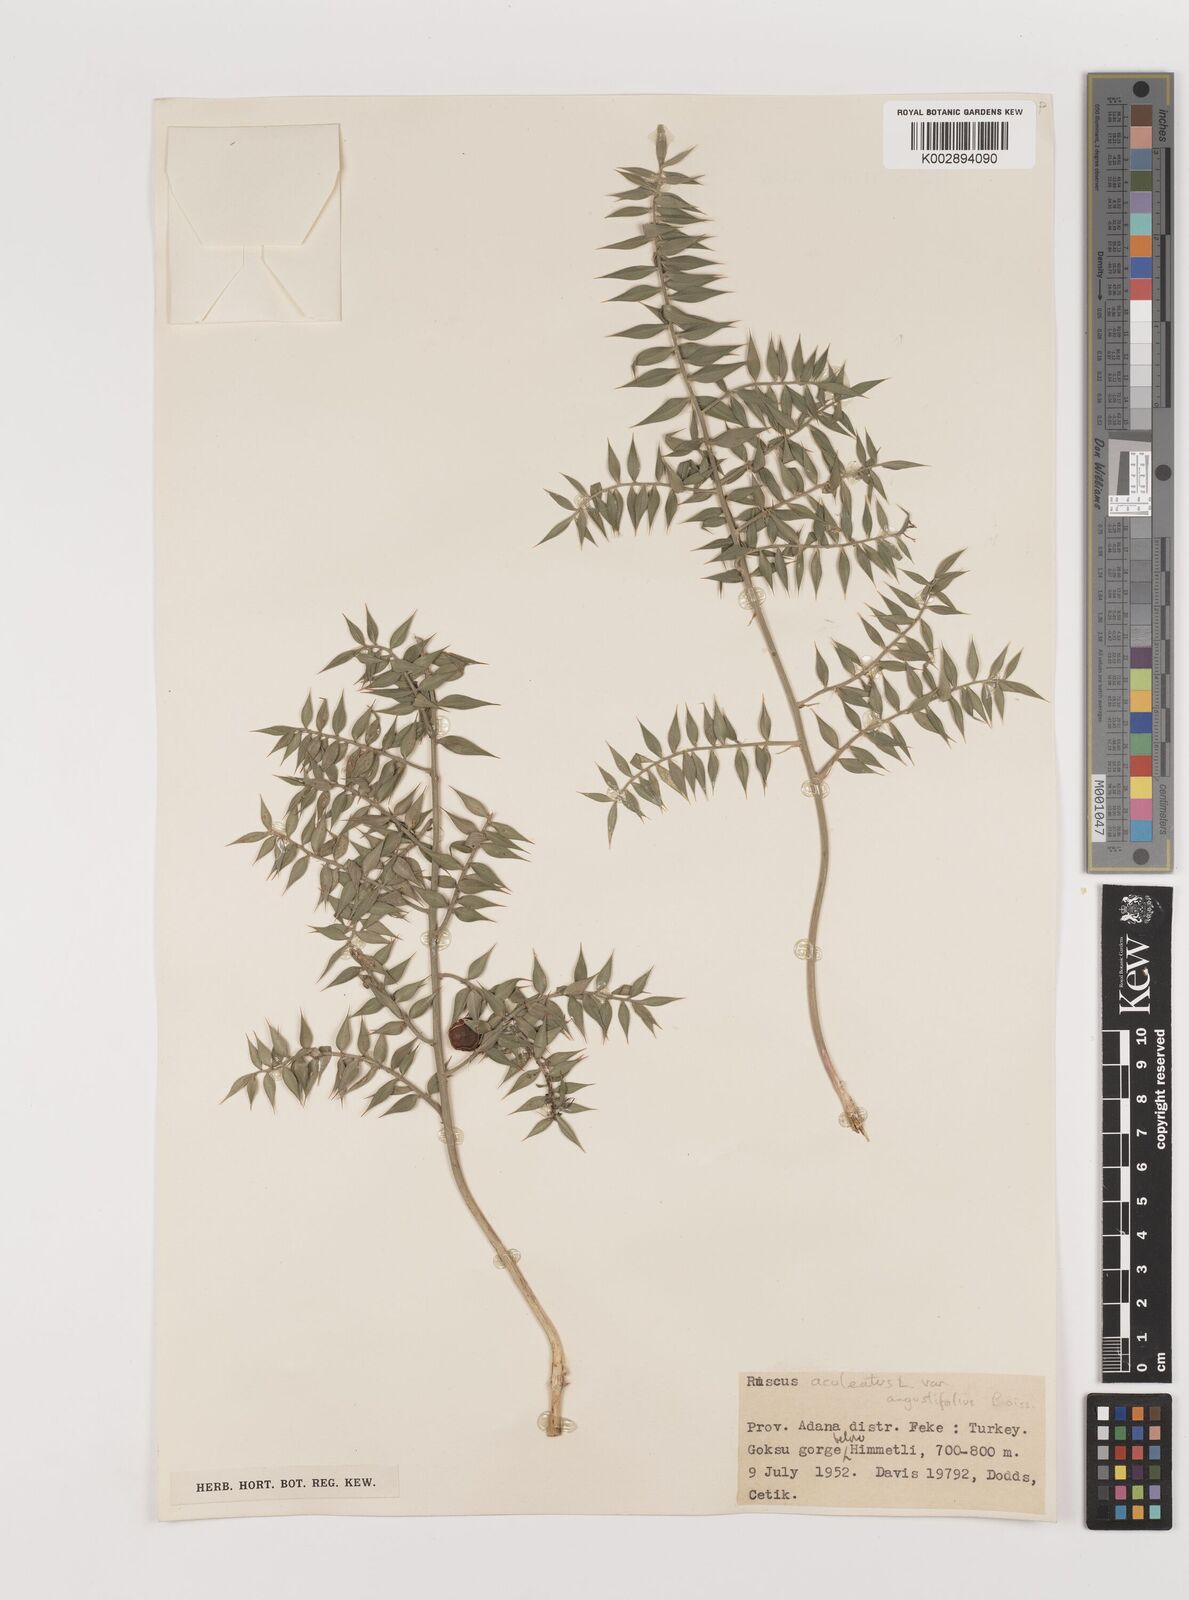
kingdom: Plantae
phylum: Tracheophyta
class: Liliopsida
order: Asparagales
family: Asparagaceae
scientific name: Asparagaceae
